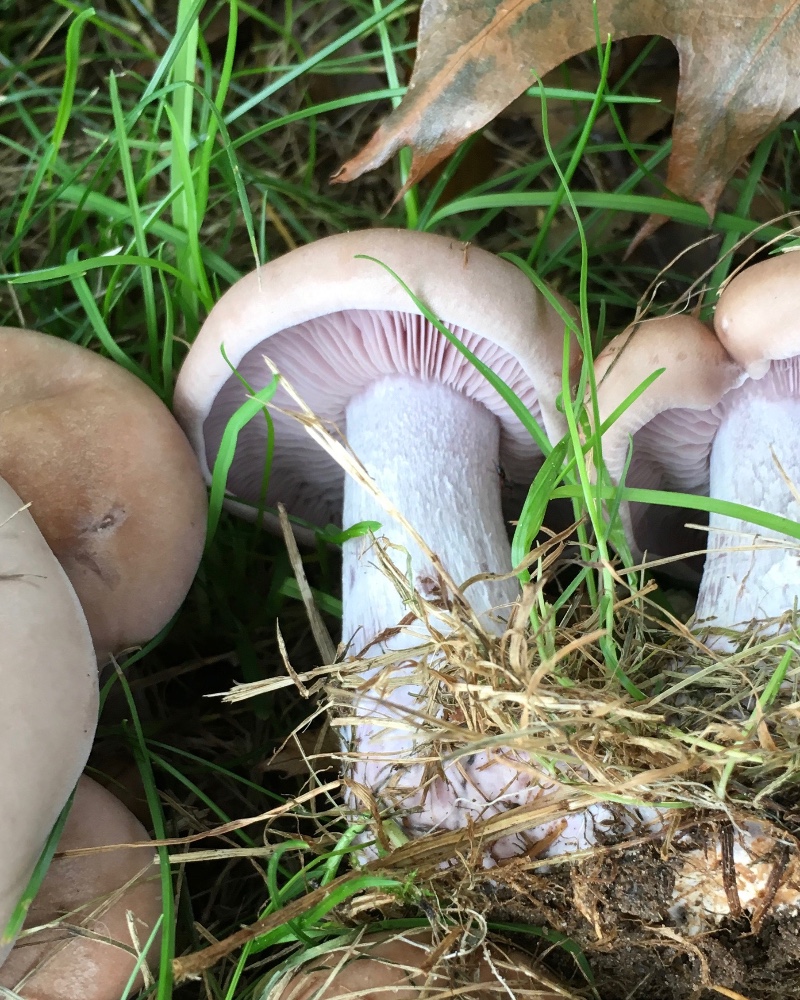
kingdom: Fungi
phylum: Basidiomycota
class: Agaricomycetes
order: Agaricales
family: Tricholomataceae
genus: Lepista
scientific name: Lepista nuda
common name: violet hekseringshat
